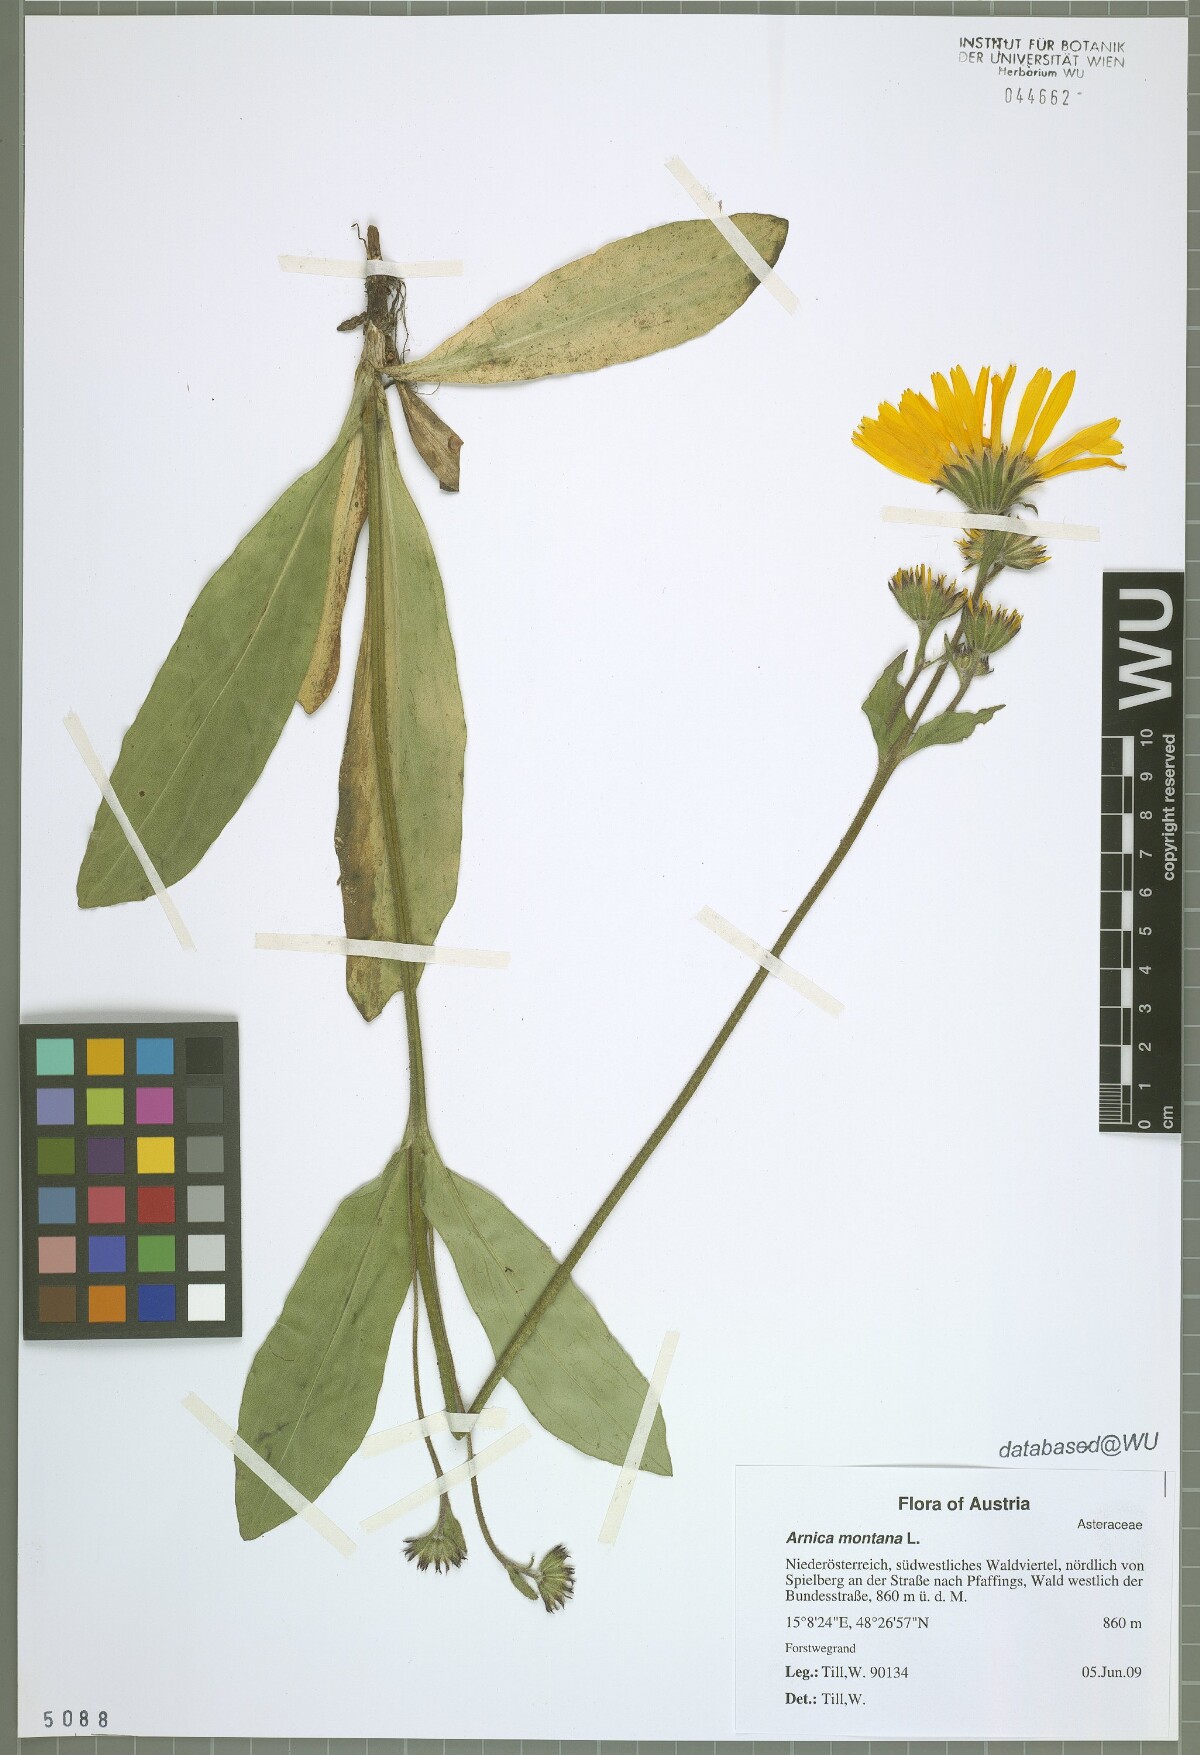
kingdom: Plantae
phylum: Tracheophyta
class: Magnoliopsida
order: Asterales
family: Asteraceae
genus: Arnica
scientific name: Arnica montana
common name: Leopard's bane
